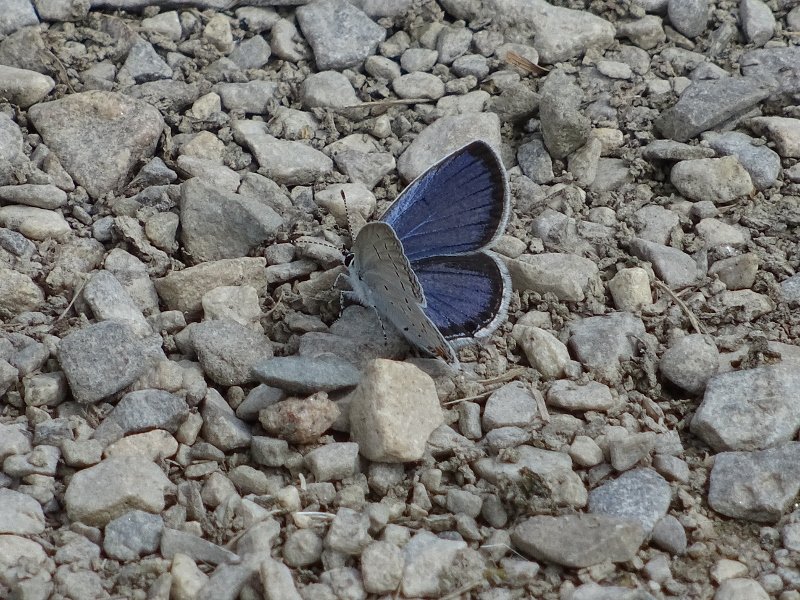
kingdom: Animalia
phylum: Arthropoda
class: Insecta
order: Lepidoptera
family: Lycaenidae
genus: Elkalyce
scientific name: Elkalyce comyntas
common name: Eastern Tailed-Blue
